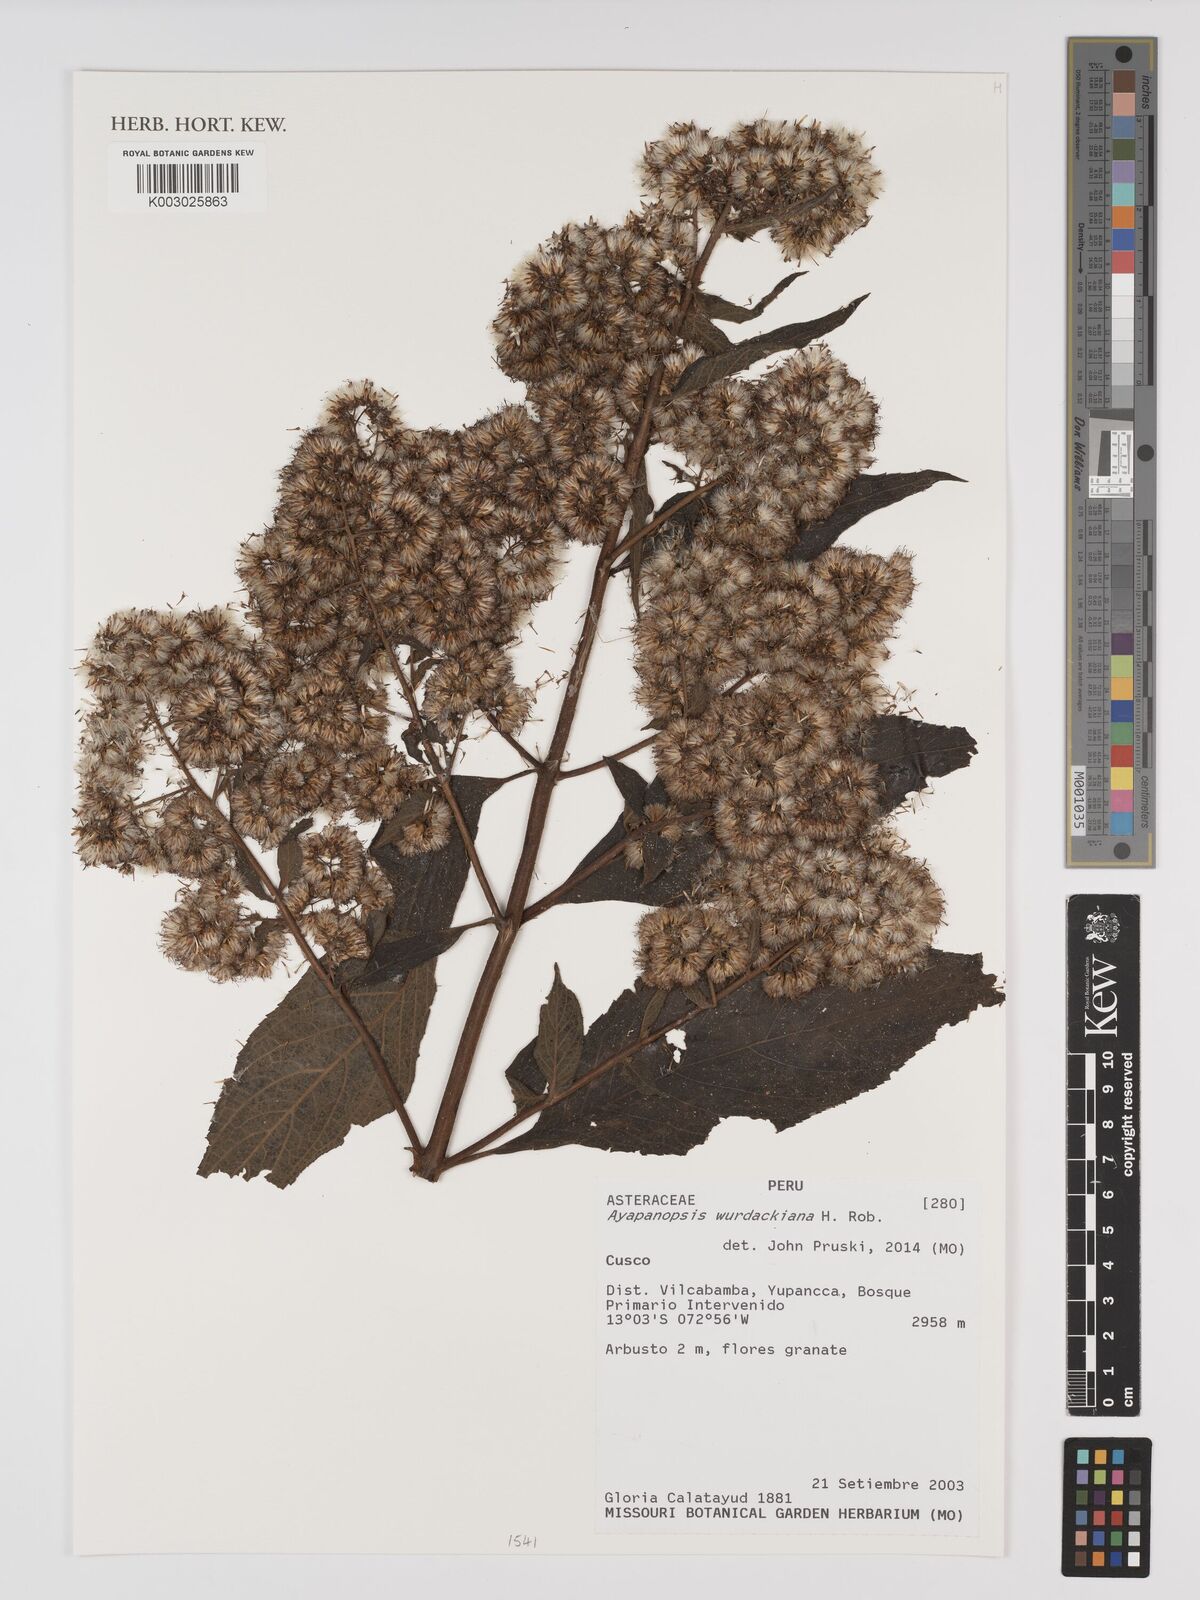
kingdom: Plantae
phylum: Tracheophyta
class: Magnoliopsida
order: Asterales
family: Asteraceae
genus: Ayapanopsis
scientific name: Ayapanopsis wurdackiana
